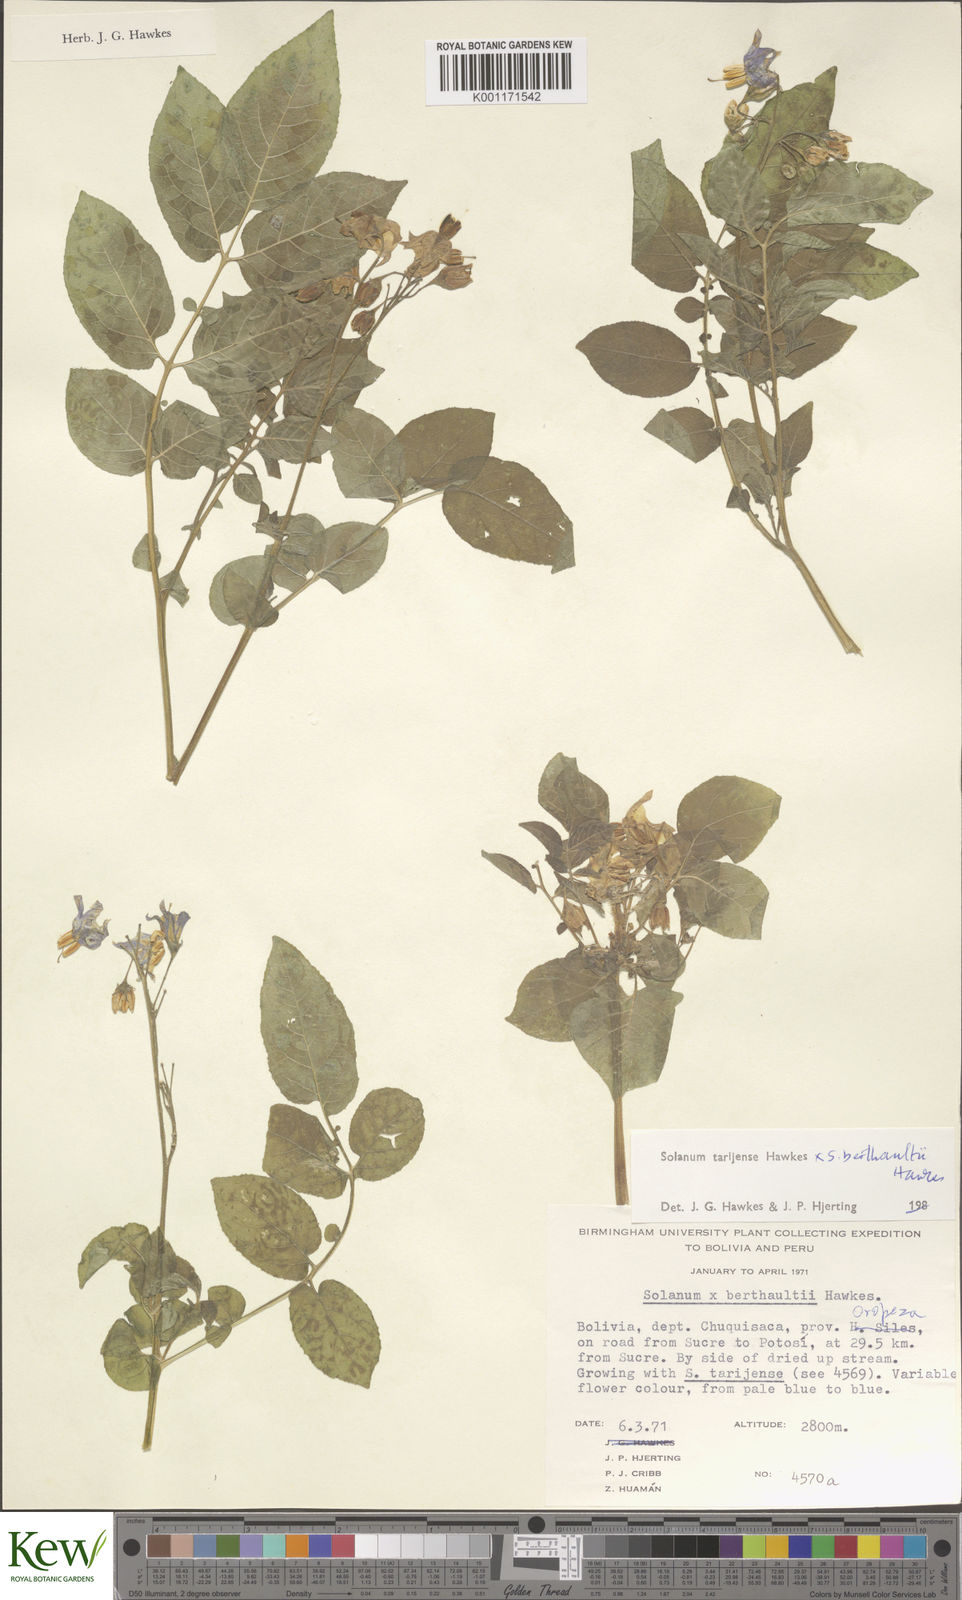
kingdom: Plantae
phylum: Tracheophyta
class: Magnoliopsida
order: Solanales
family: Solanaceae
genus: Solanum
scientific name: Solanum tarijense
